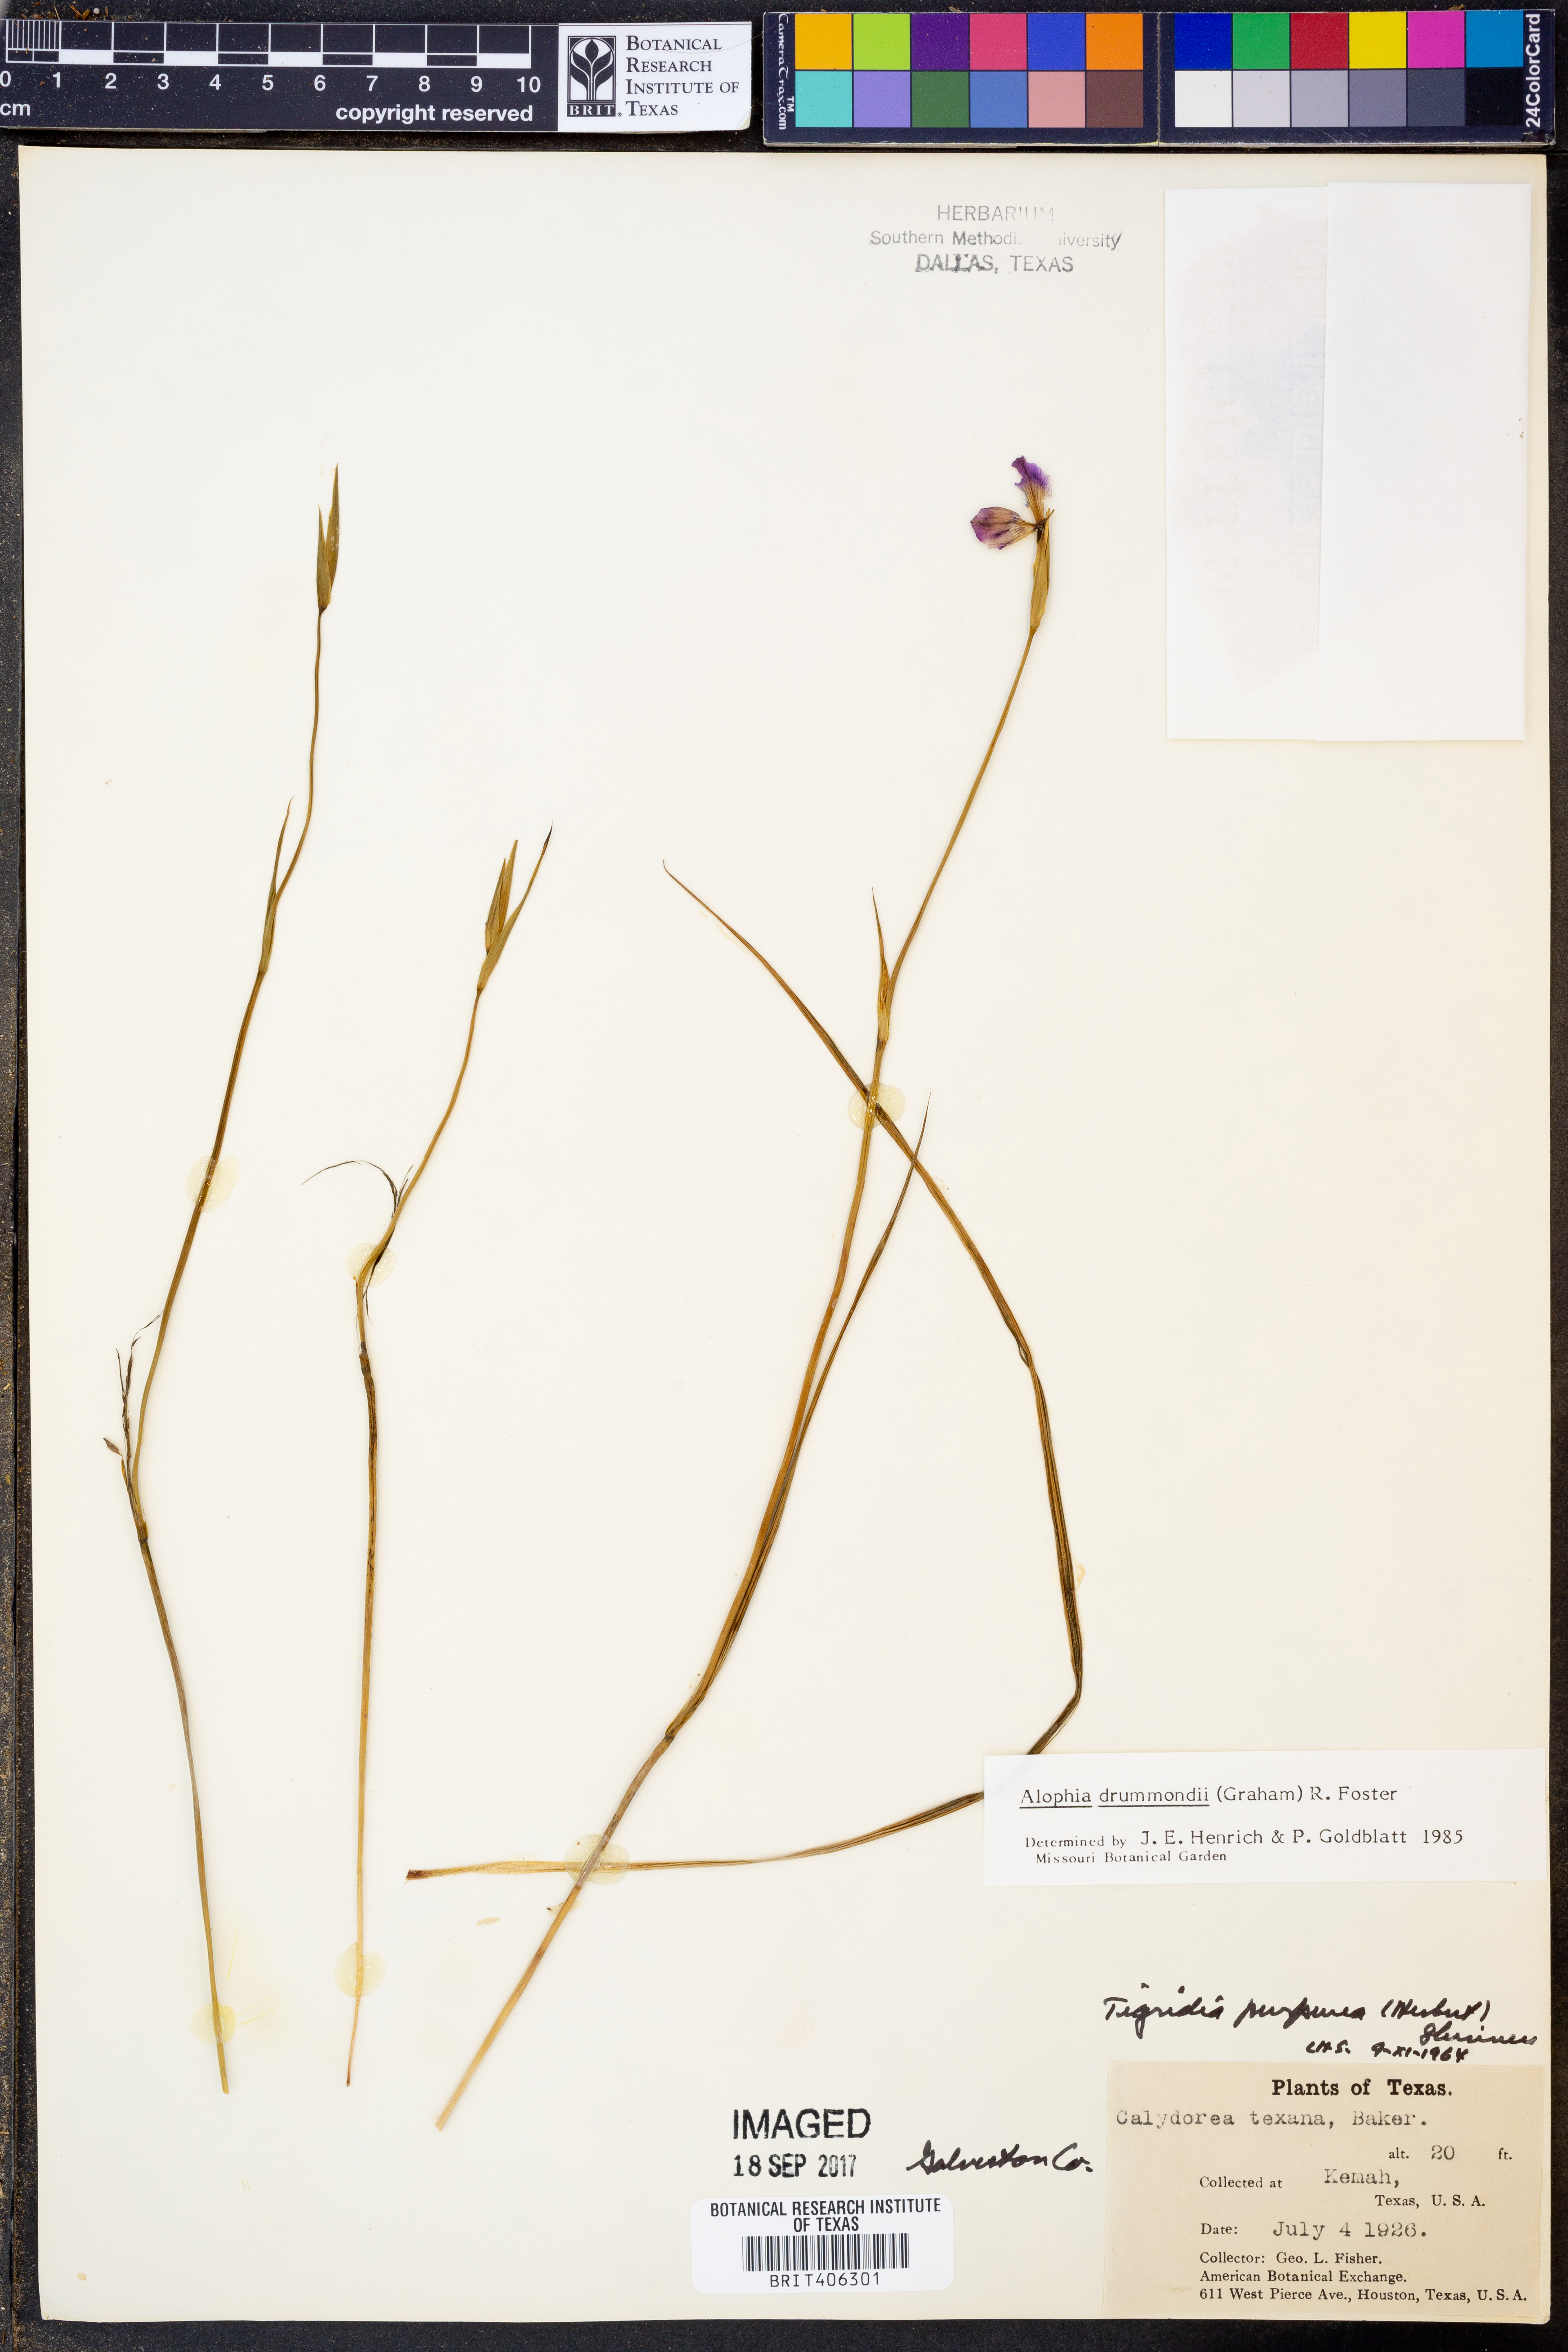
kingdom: Plantae
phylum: Tracheophyta
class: Liliopsida
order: Asparagales
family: Iridaceae
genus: Alophia
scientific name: Alophia drummondii
